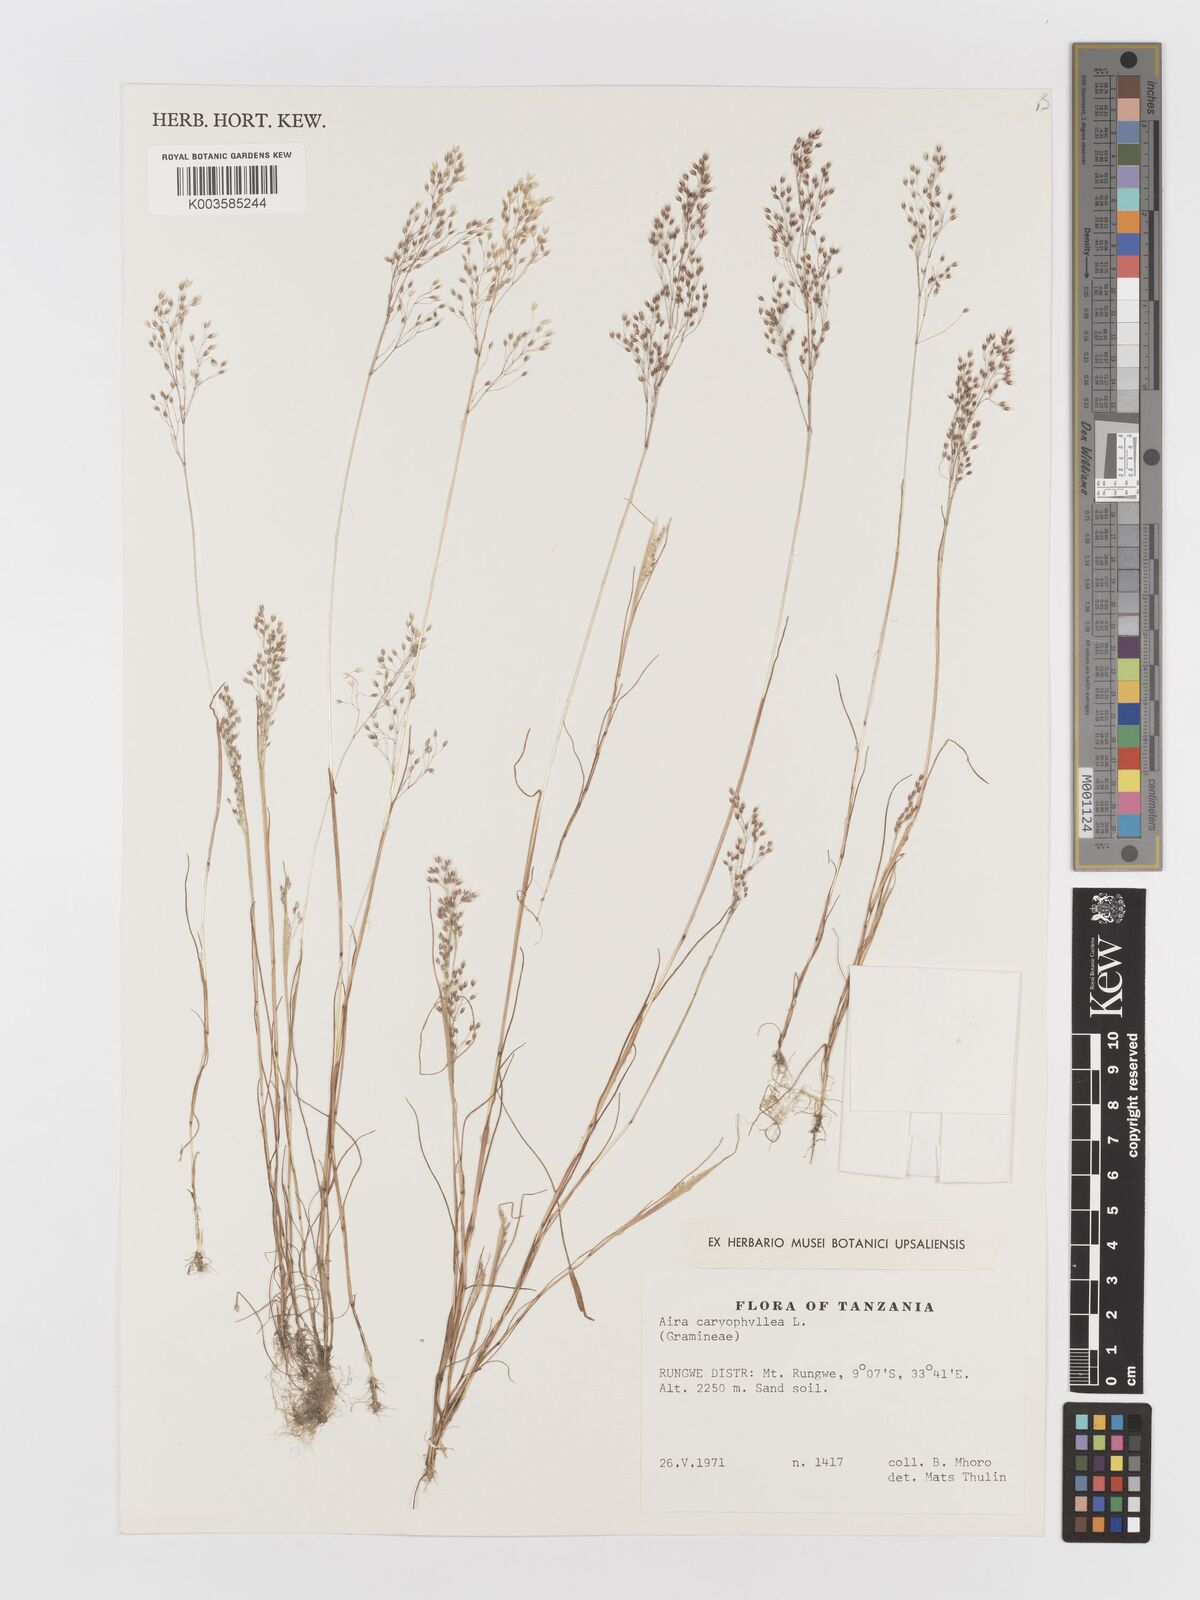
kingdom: Plantae
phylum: Tracheophyta
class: Liliopsida
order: Poales
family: Poaceae
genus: Aira
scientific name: Aira caryophyllea
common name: Silver hairgrass
